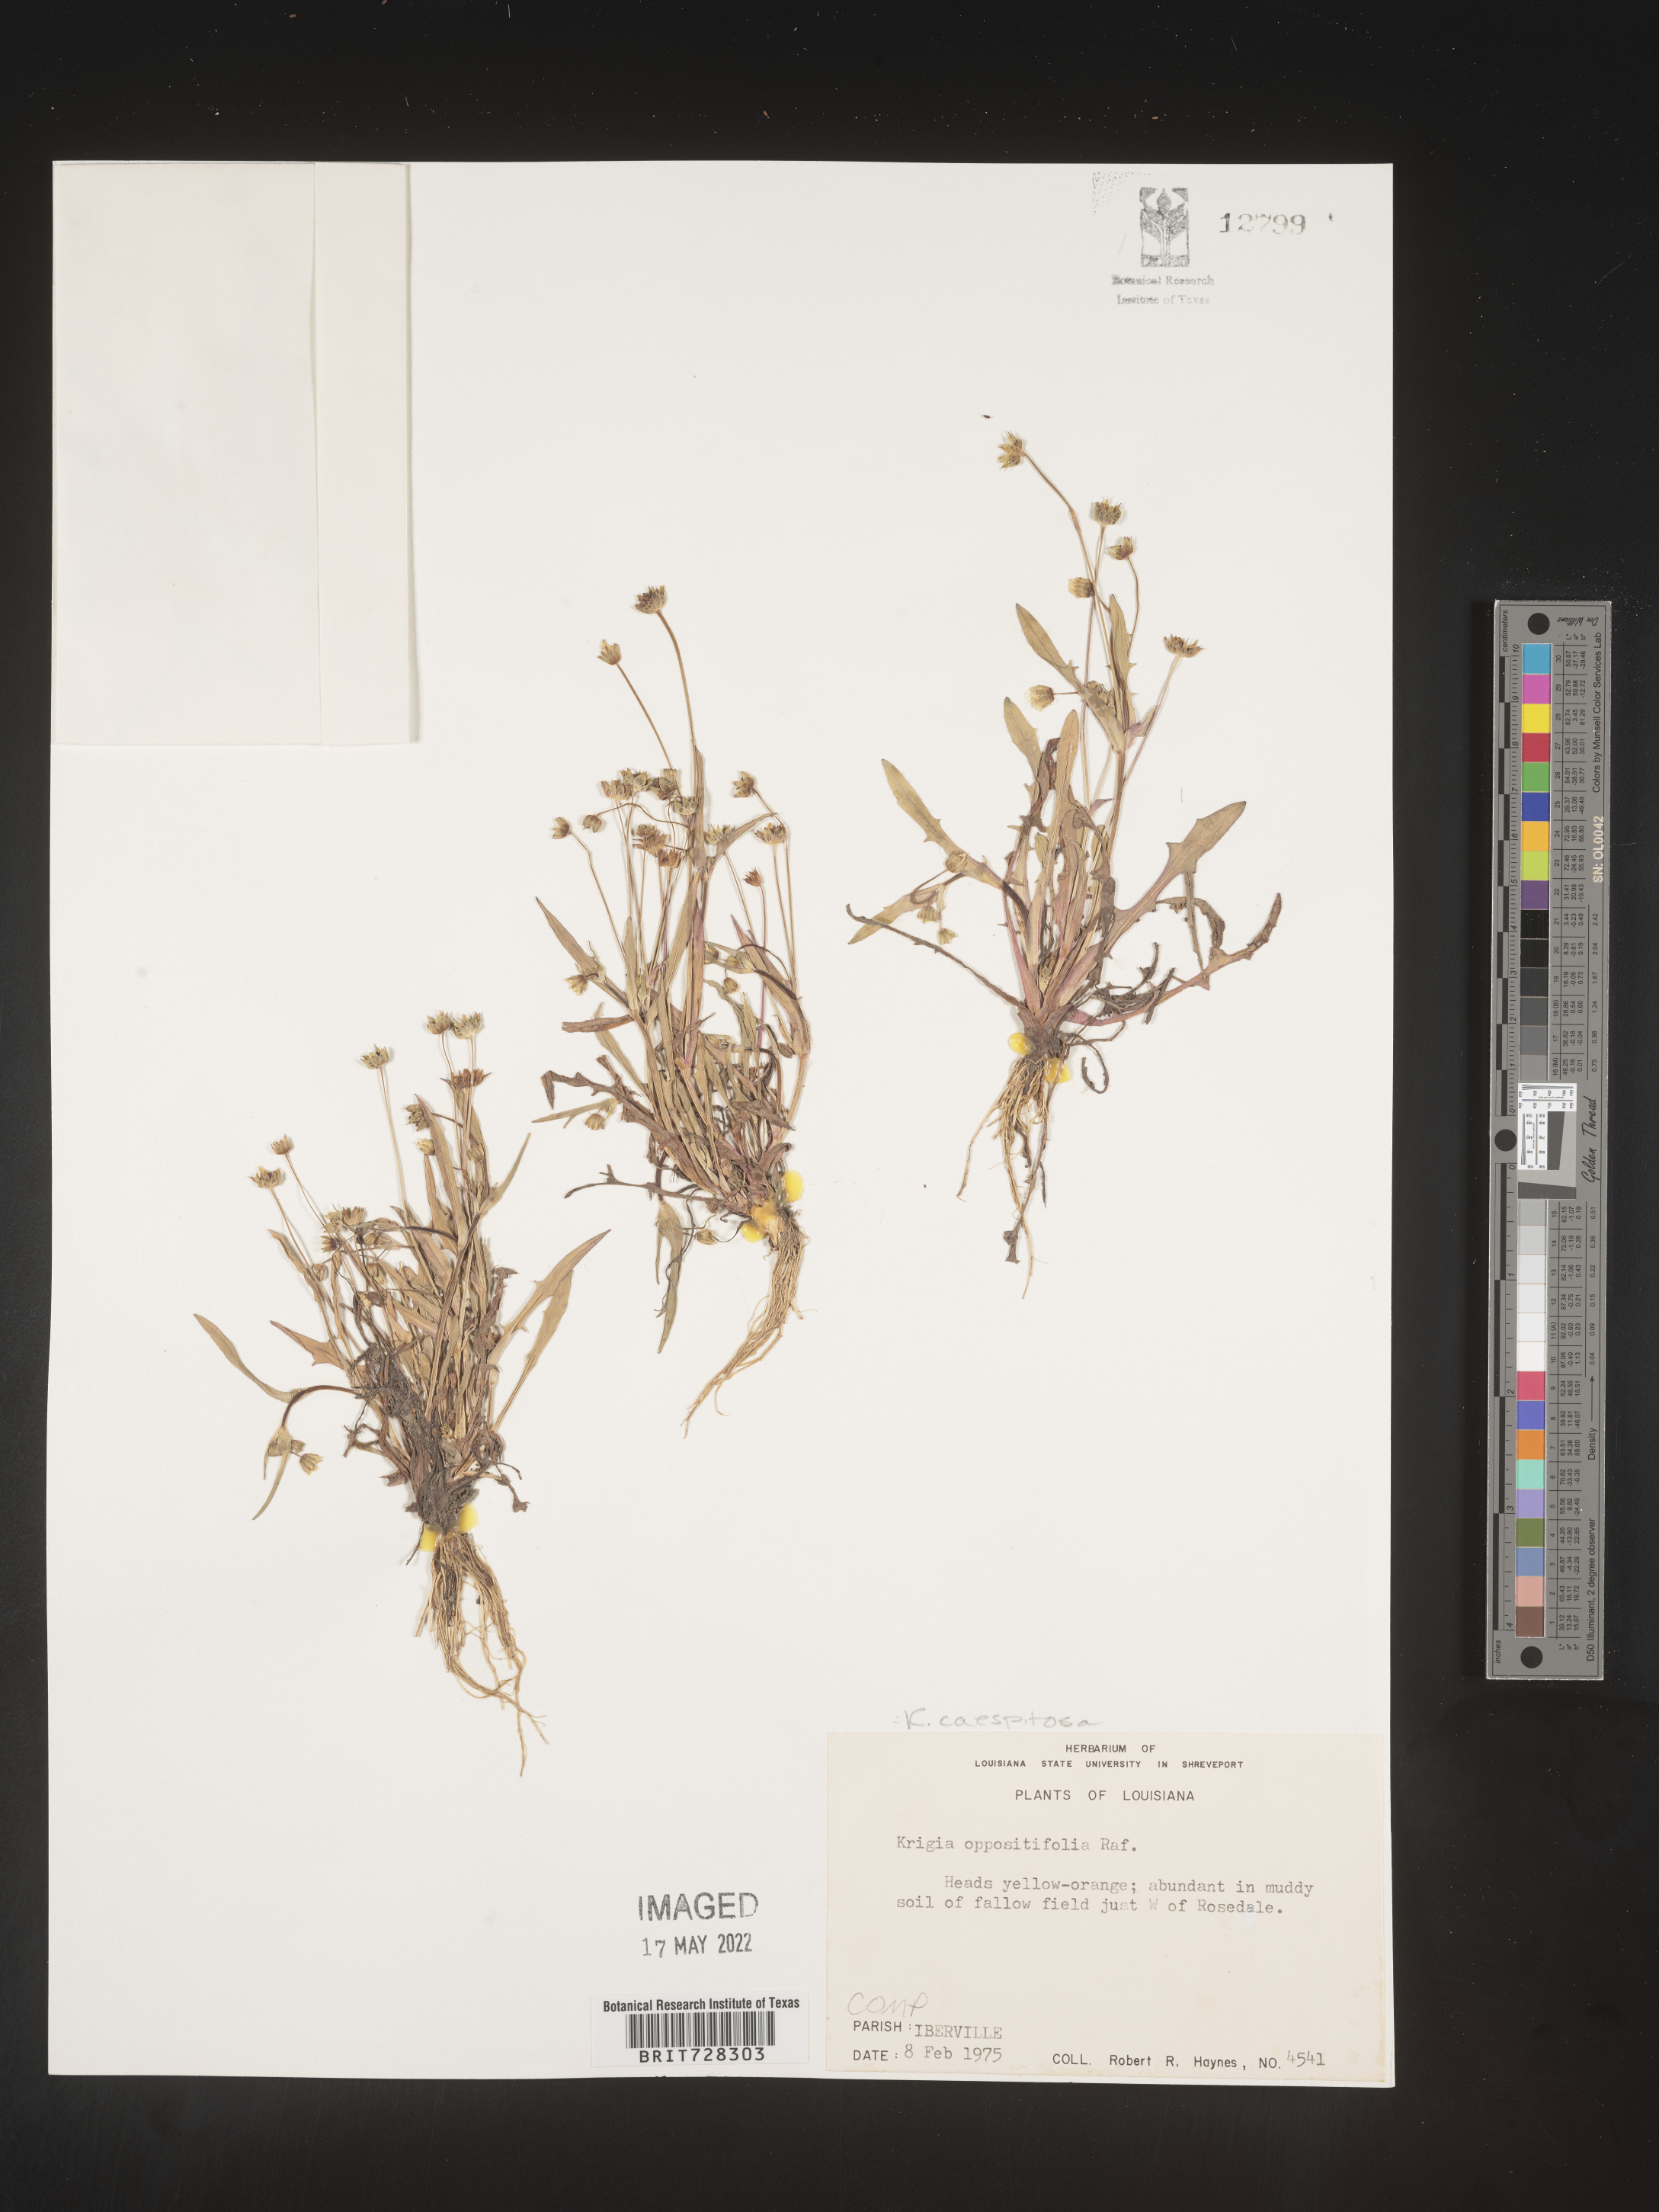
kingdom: Plantae
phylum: Tracheophyta
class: Magnoliopsida
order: Asterales
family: Asteraceae
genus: Krigia
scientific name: Krigia caespitosa
